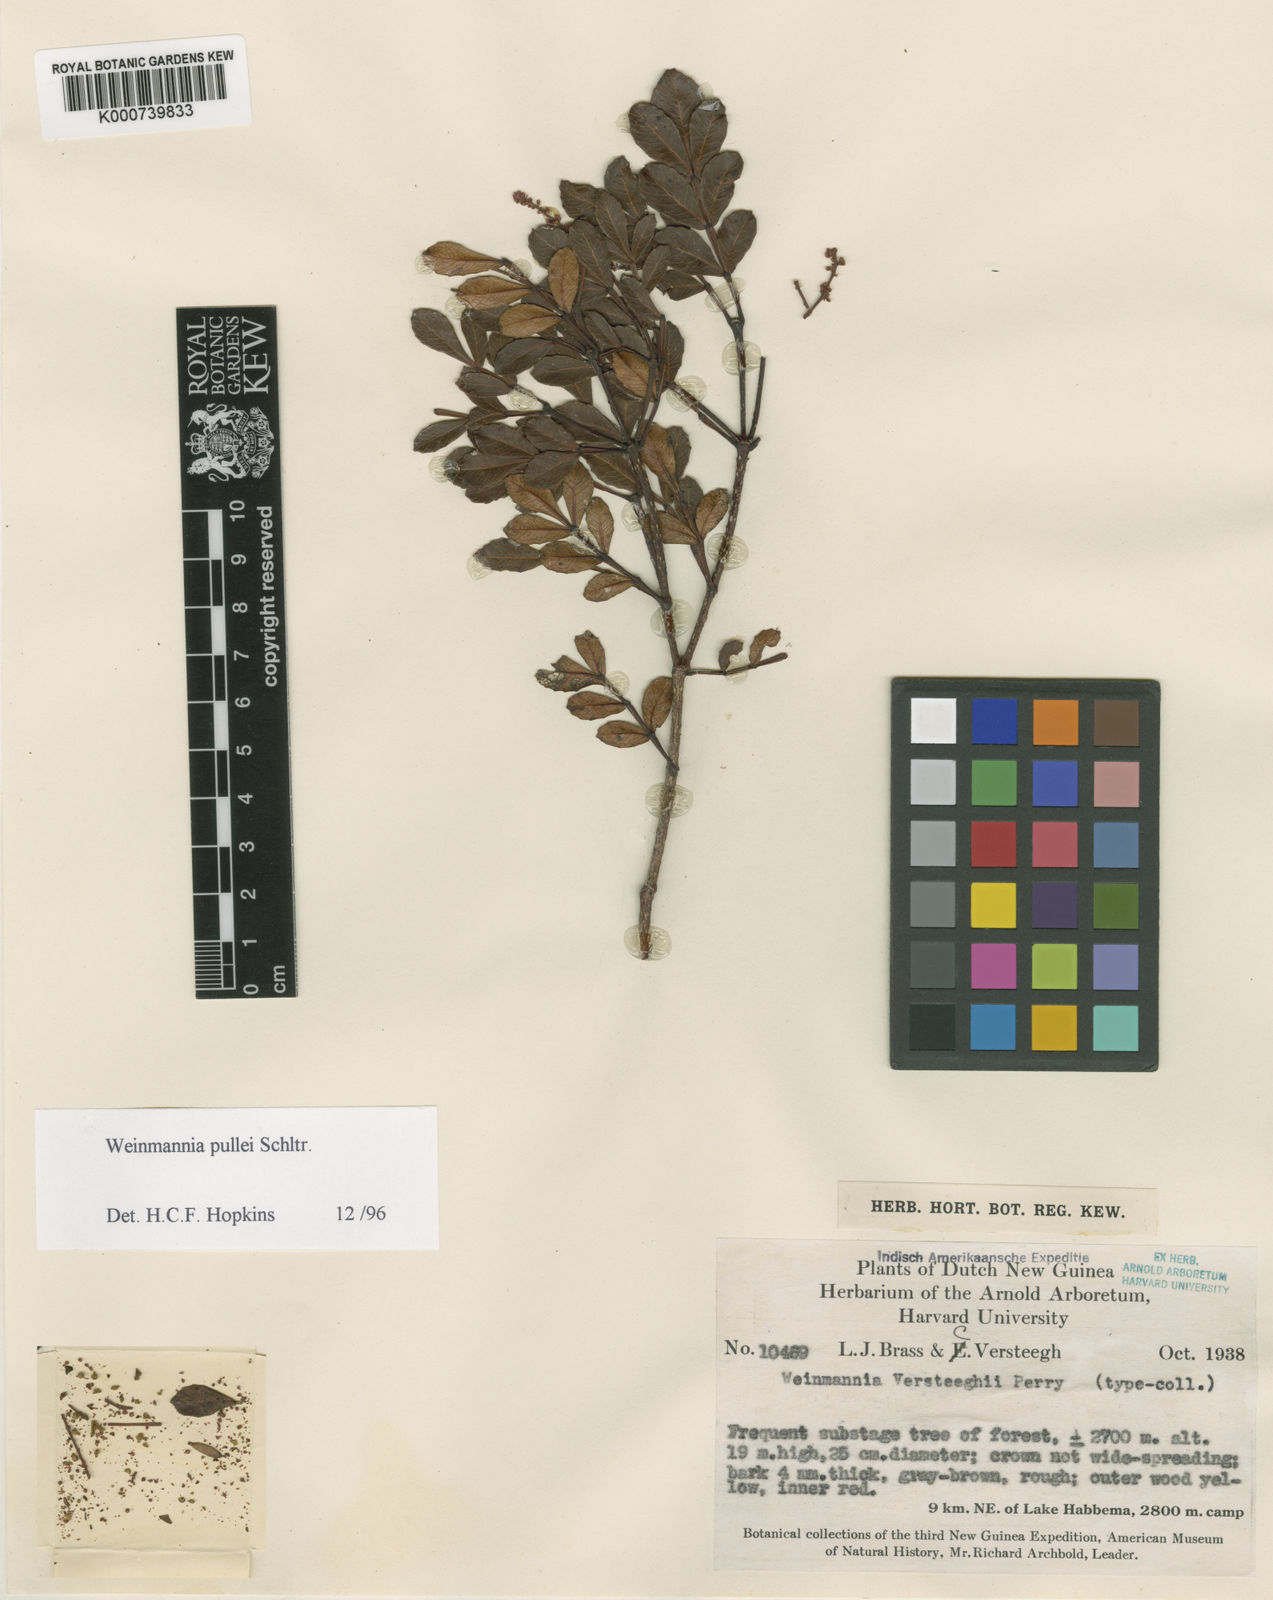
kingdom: Plantae
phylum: Tracheophyta
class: Magnoliopsida
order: Oxalidales
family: Cunoniaceae
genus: Pterophylla
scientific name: Pterophylla pullei
